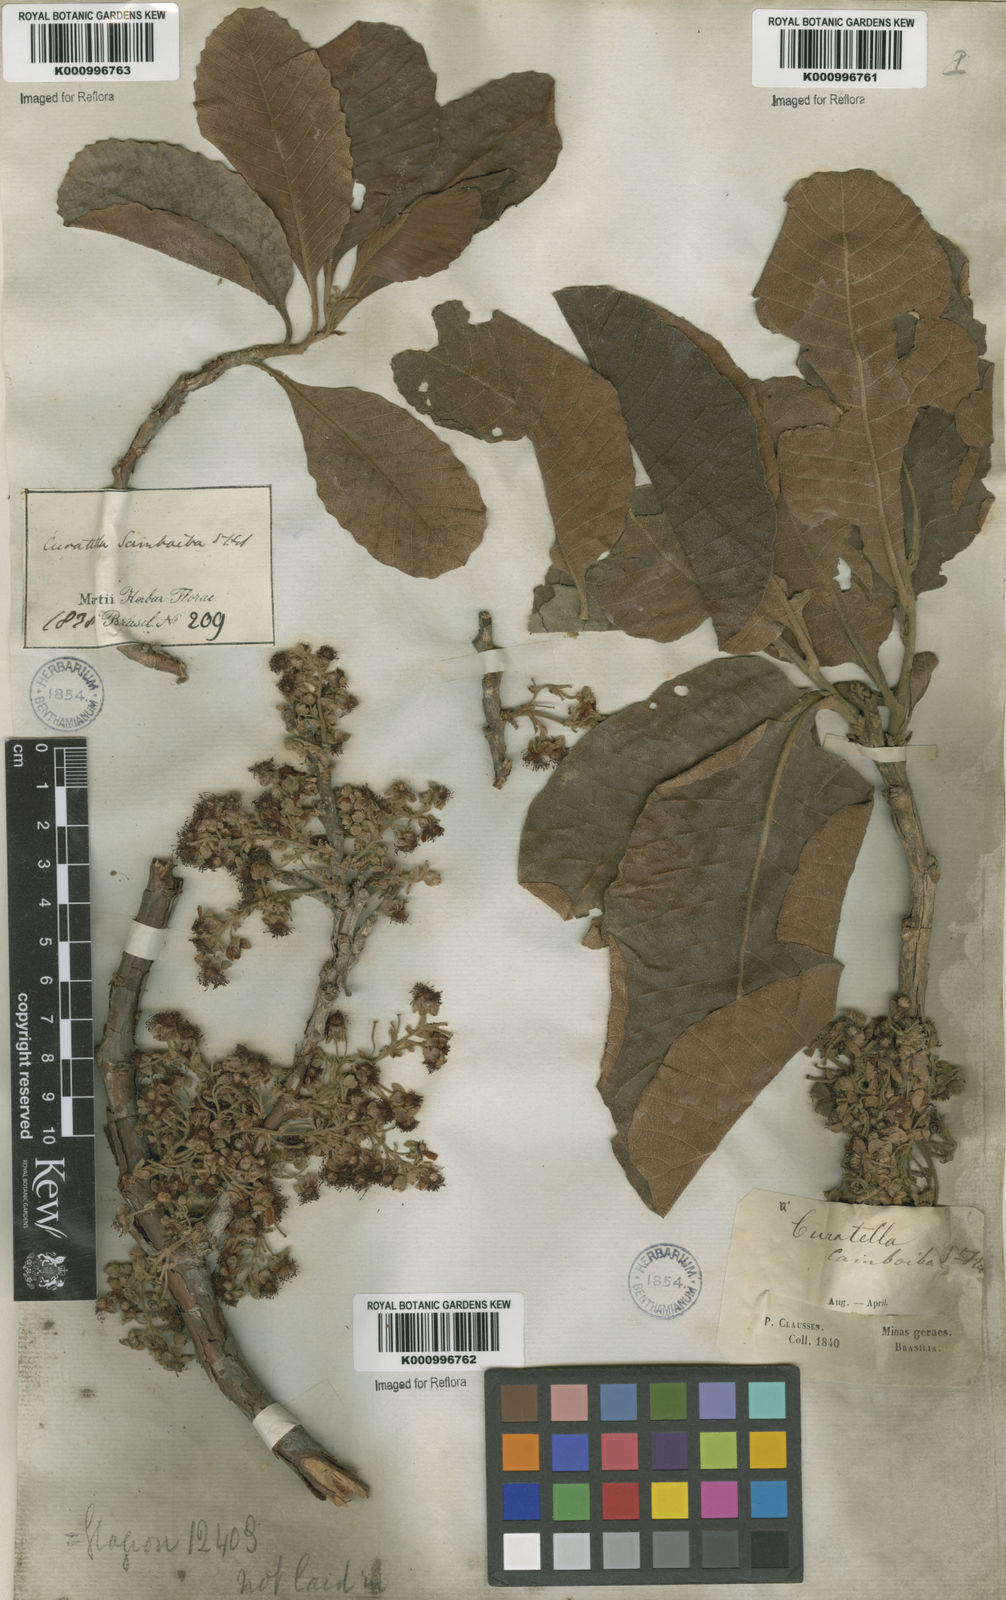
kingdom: Plantae
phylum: Tracheophyta
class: Magnoliopsida
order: Dilleniales
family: Dilleniaceae
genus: Curatella
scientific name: Curatella americana
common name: Sandpaper tree
